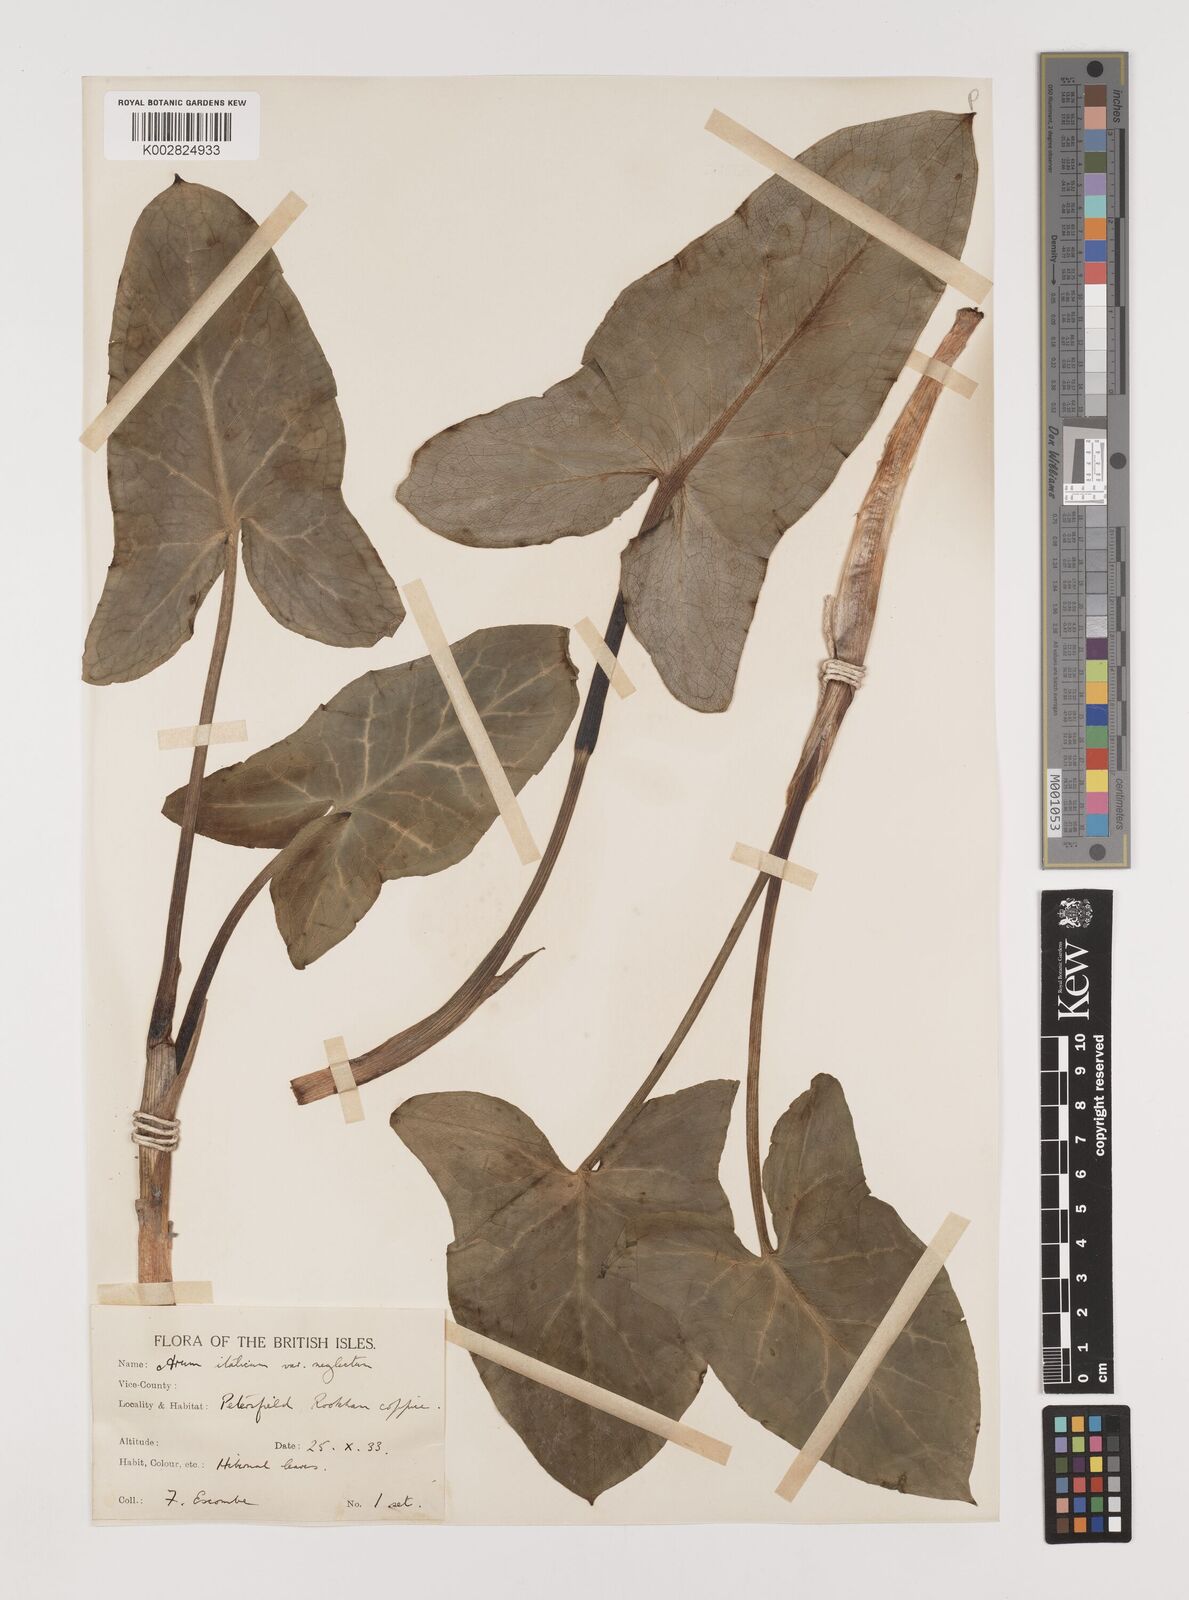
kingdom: Plantae
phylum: Tracheophyta
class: Liliopsida
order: Alismatales
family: Araceae
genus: Arum
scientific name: Arum italicum
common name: Italian lords-and-ladies
